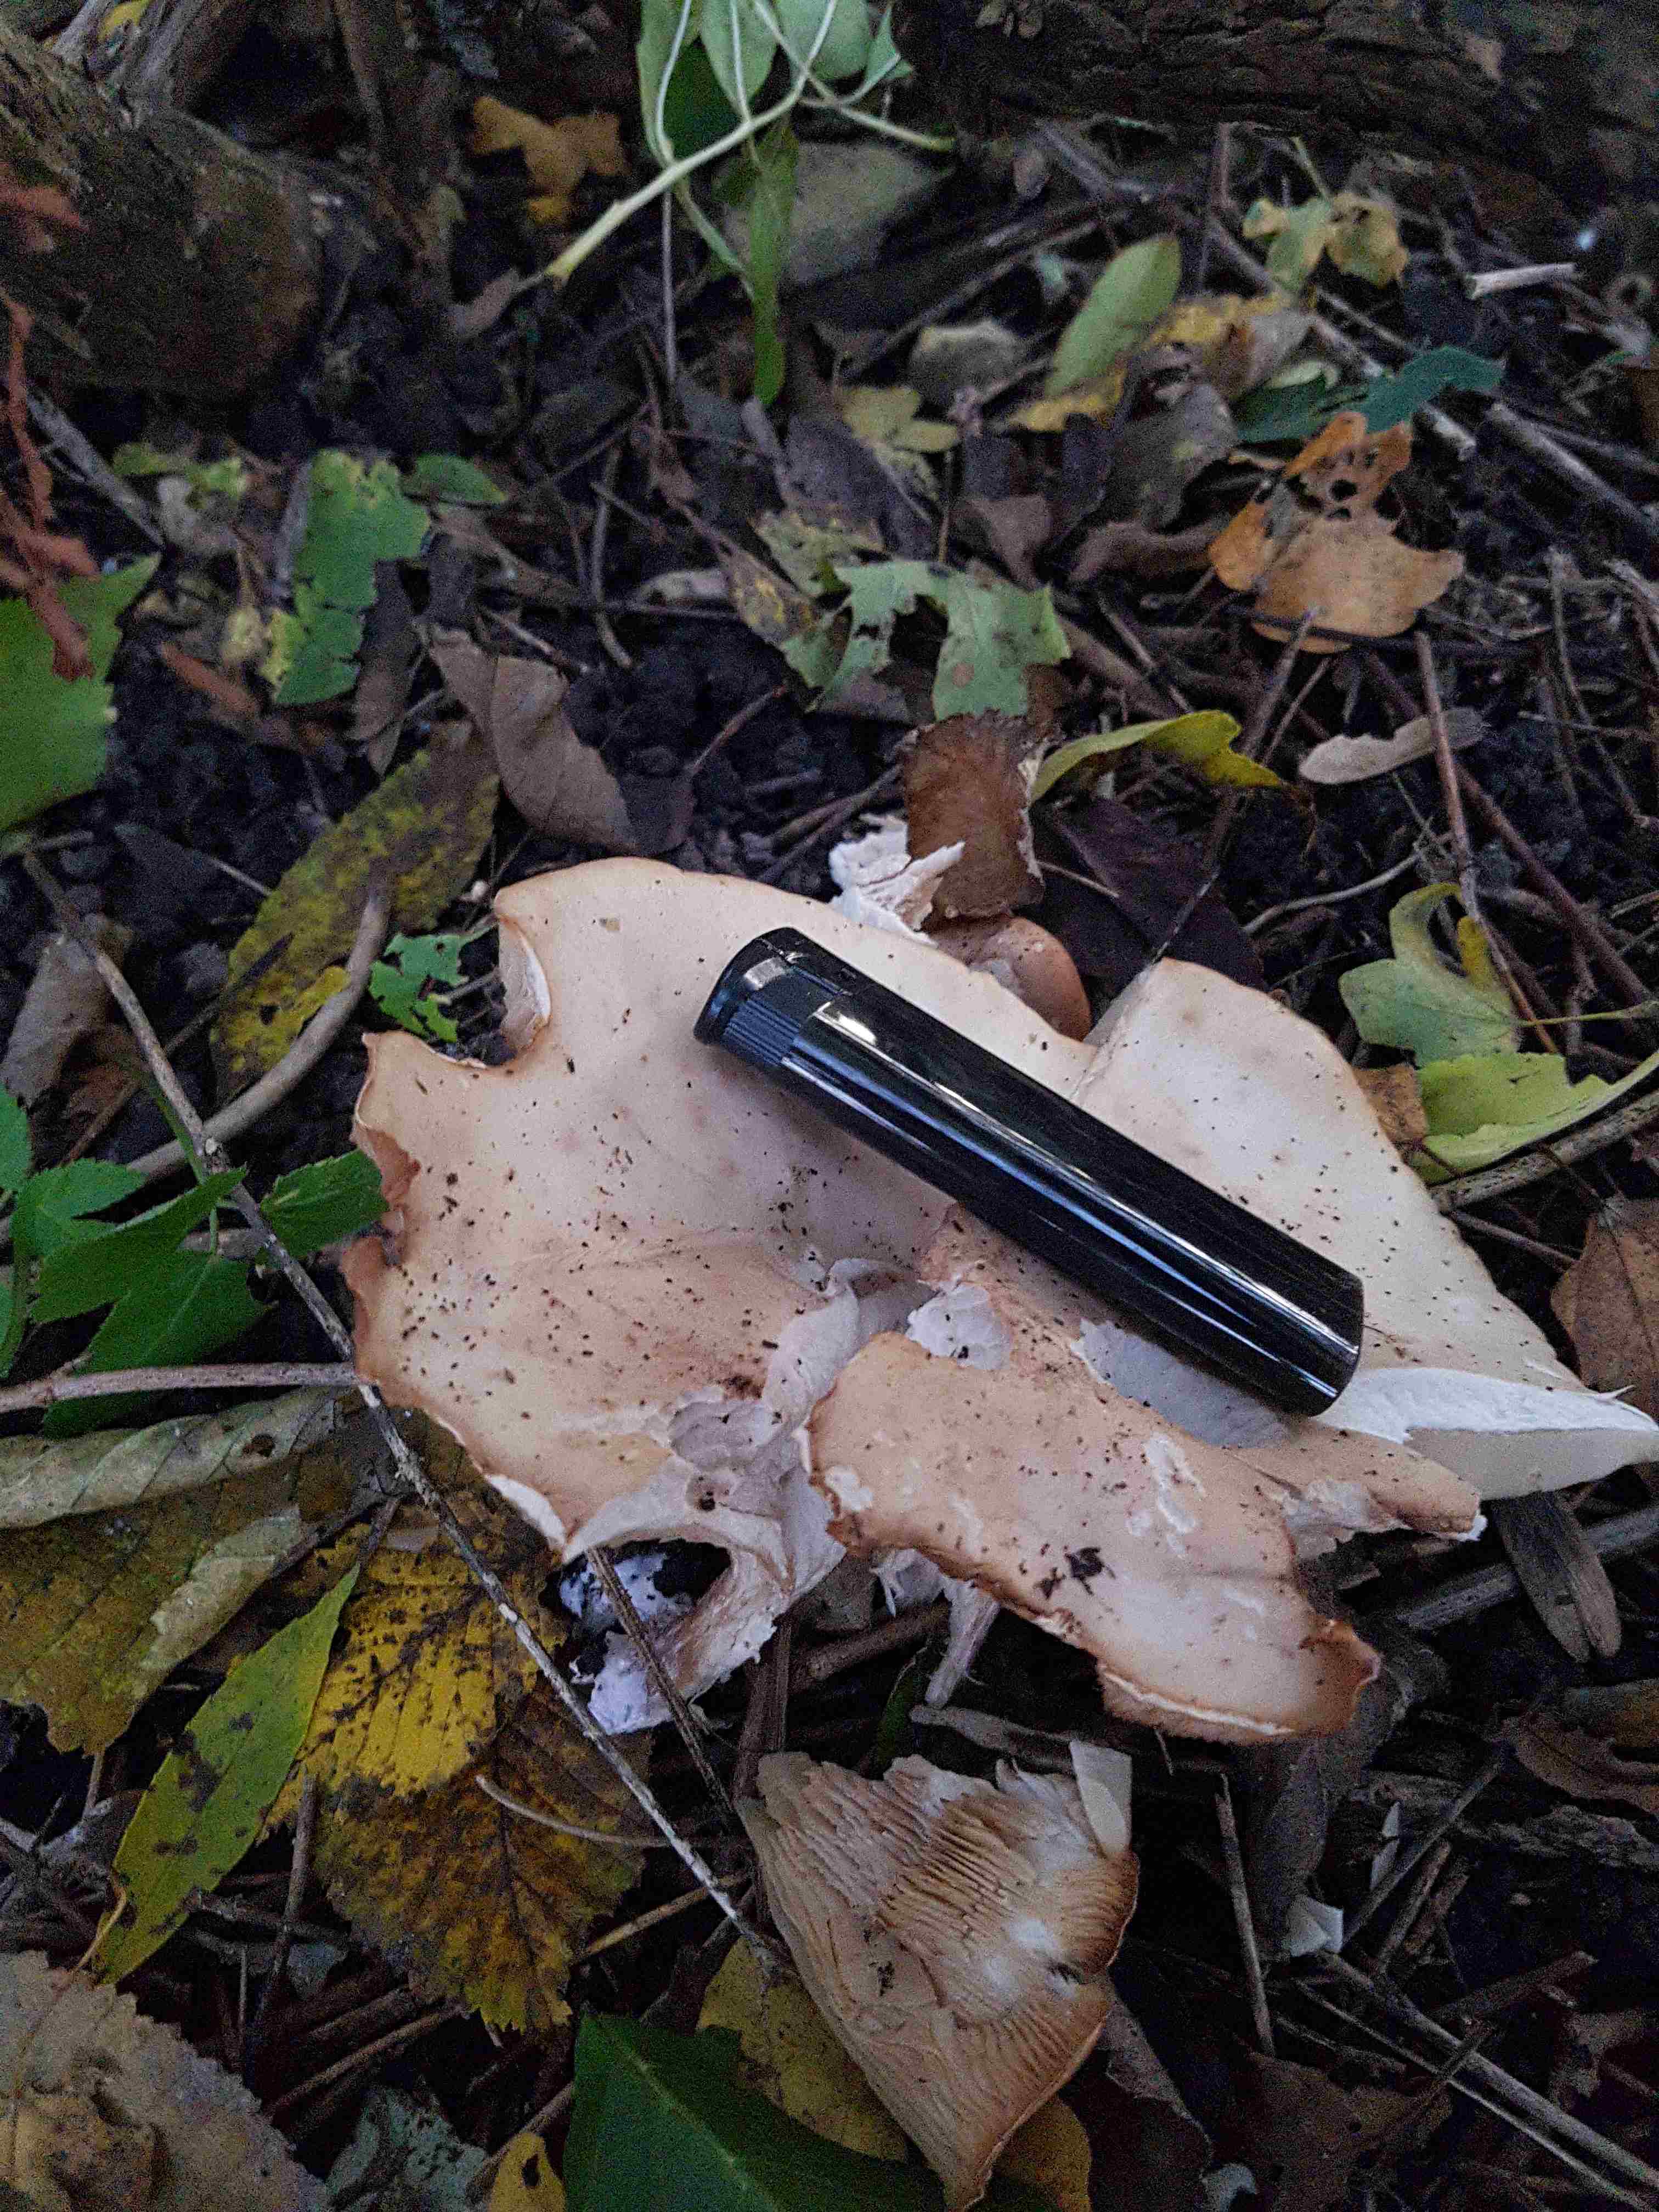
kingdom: Fungi
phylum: Basidiomycota
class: Agaricomycetes
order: Agaricales
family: Tricholomataceae
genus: Lepista
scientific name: Lepista personata
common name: bleg hekseringshat
